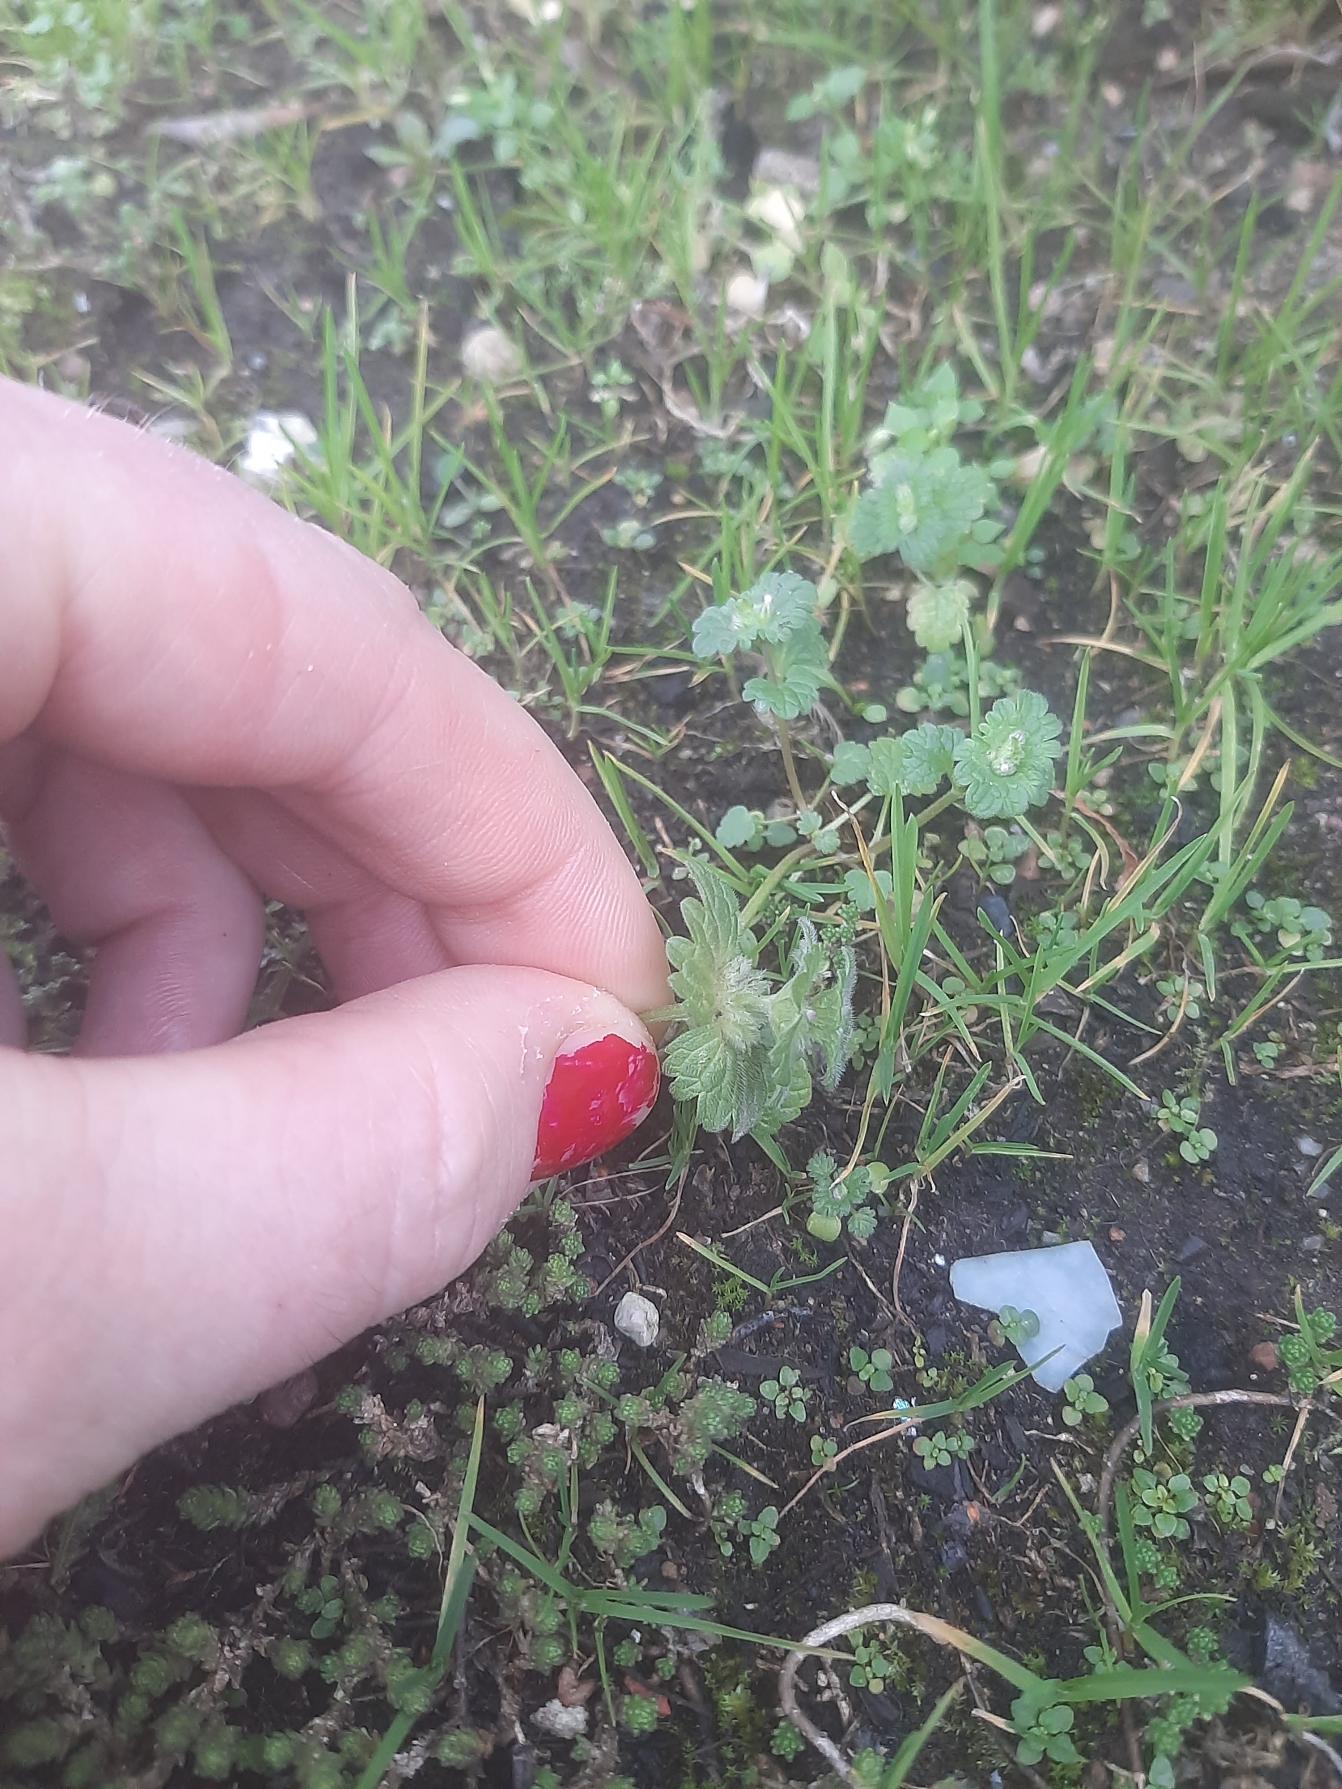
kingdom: Plantae
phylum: Tracheophyta
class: Magnoliopsida
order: Lamiales
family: Lamiaceae
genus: Lamium
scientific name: Lamium amplexicaule
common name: Liden tvetand
